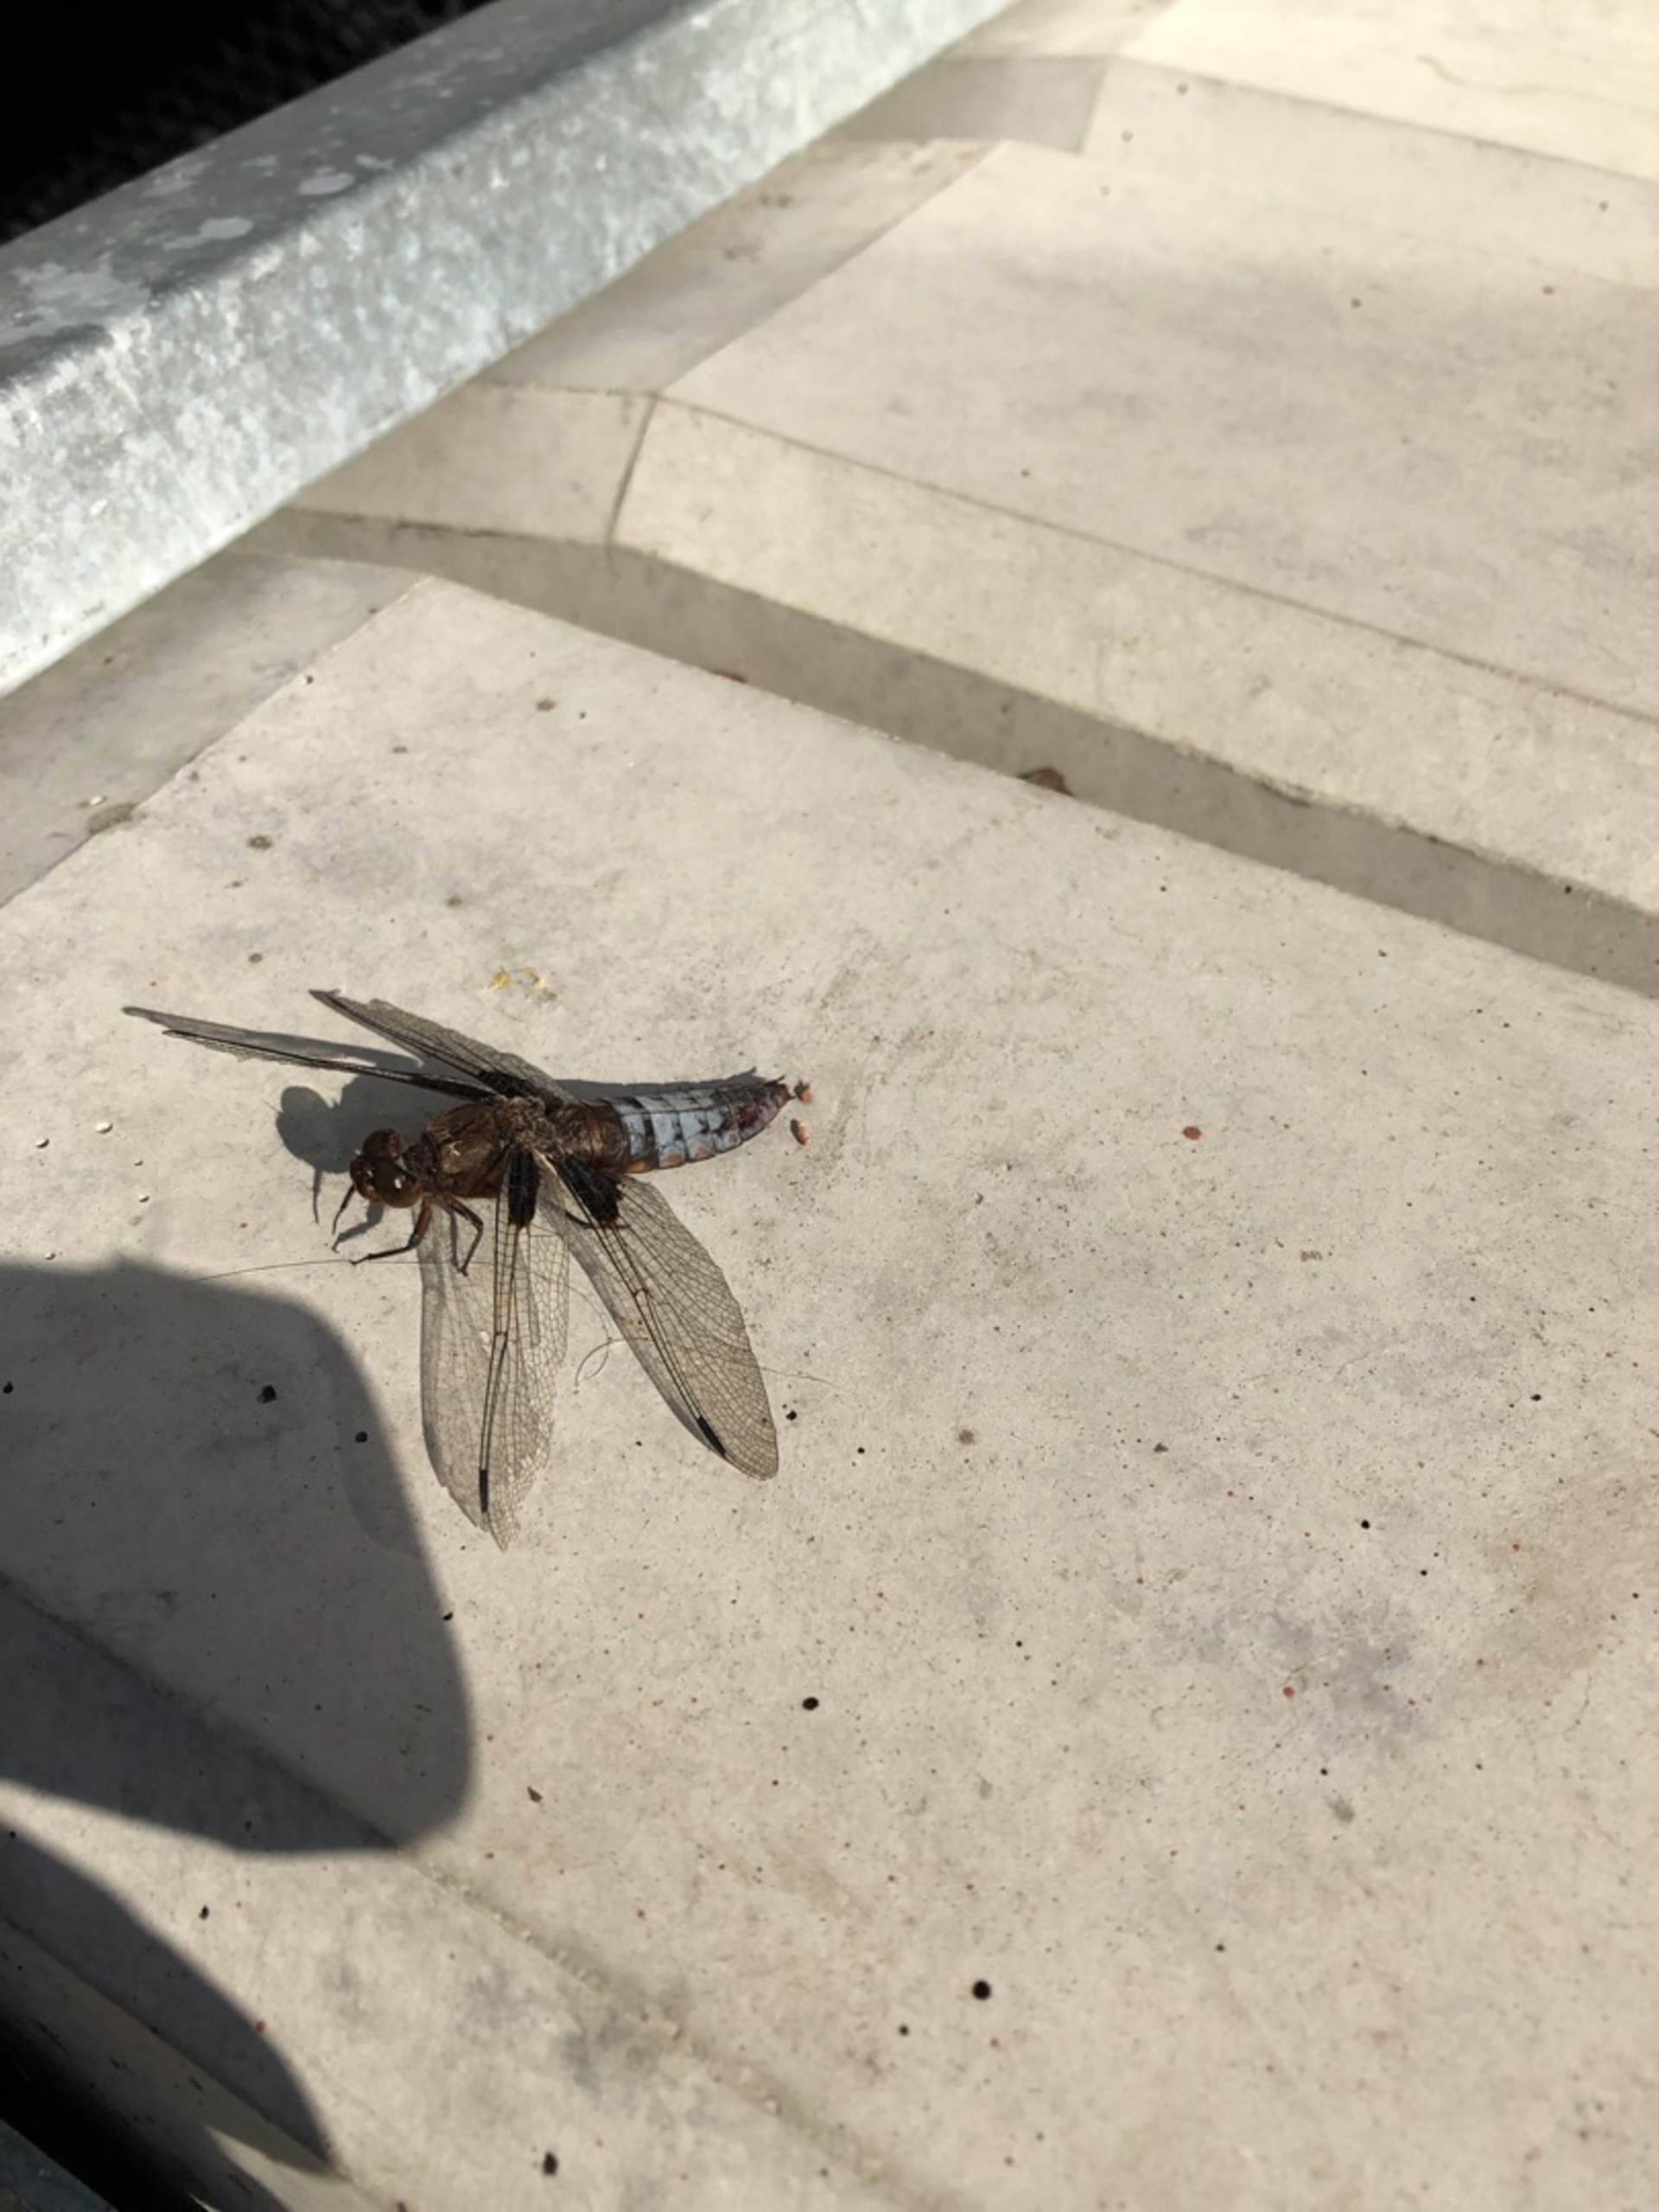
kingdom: Animalia
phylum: Arthropoda
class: Insecta
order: Odonata
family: Libellulidae
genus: Libellula
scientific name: Libellula depressa
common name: Blå libel
